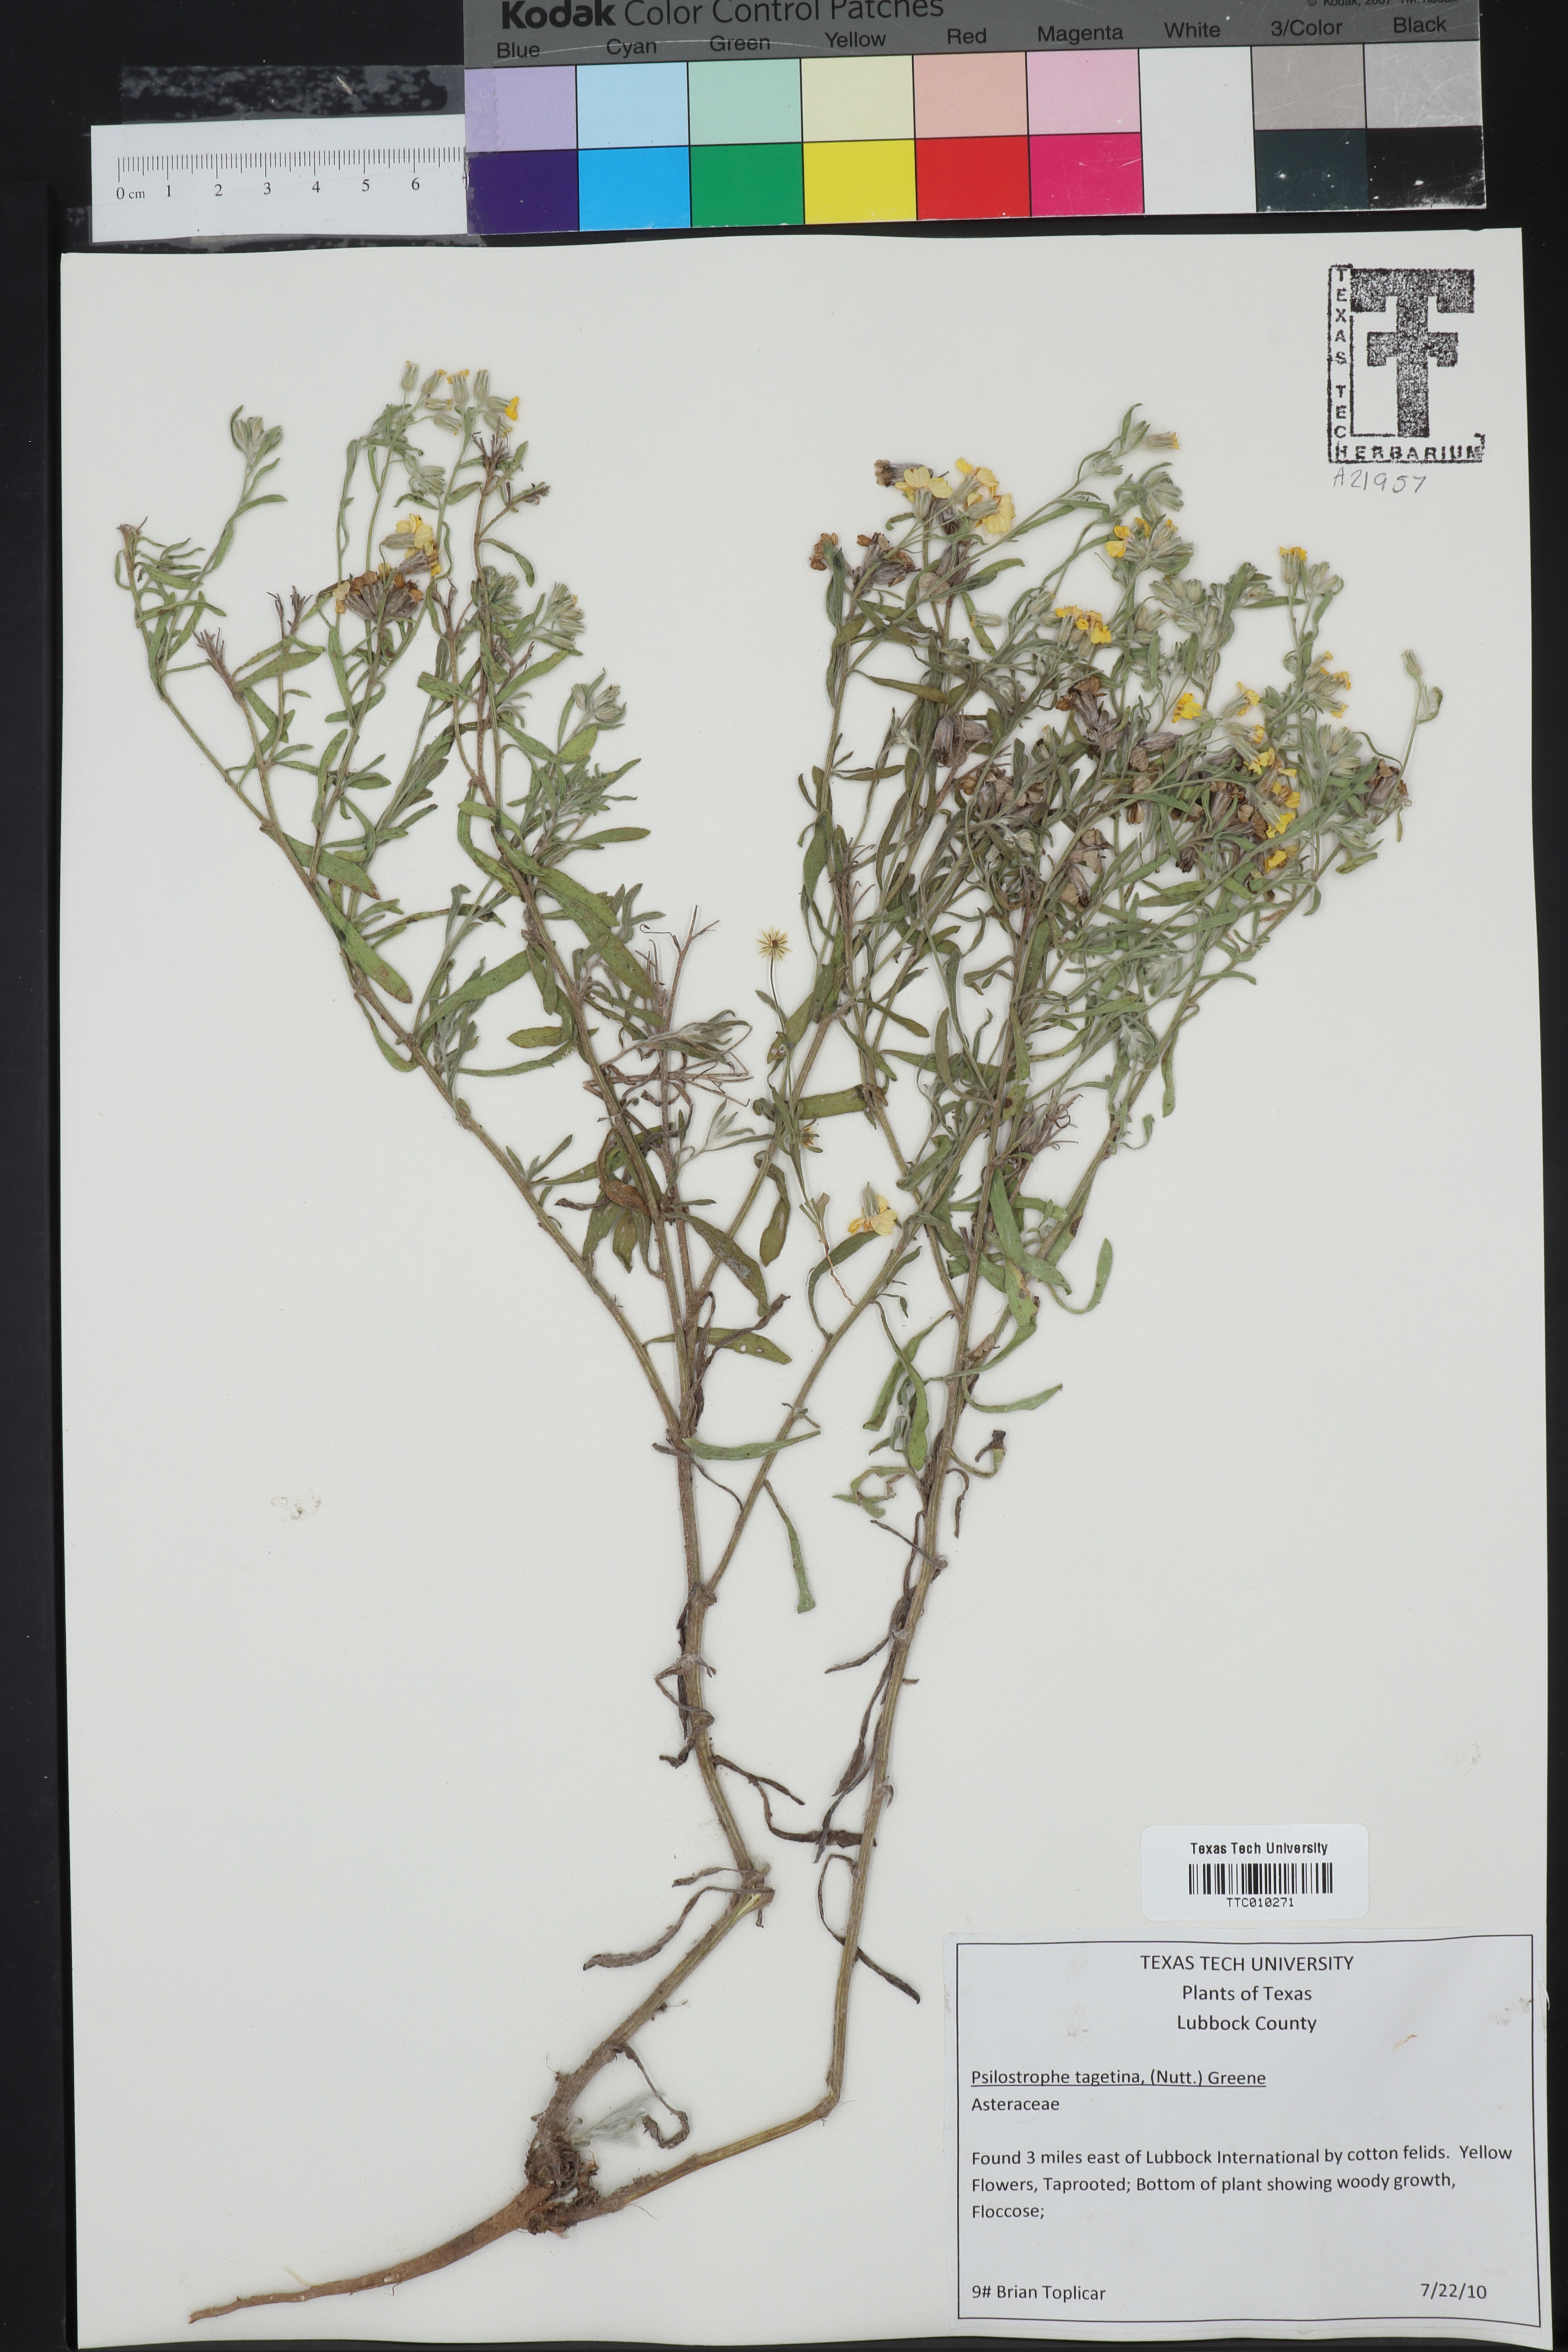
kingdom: Plantae
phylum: Tracheophyta
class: Magnoliopsida
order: Asterales
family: Asteraceae
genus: Psilostrophe
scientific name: Psilostrophe tagetina
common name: Marigold paper-flower
